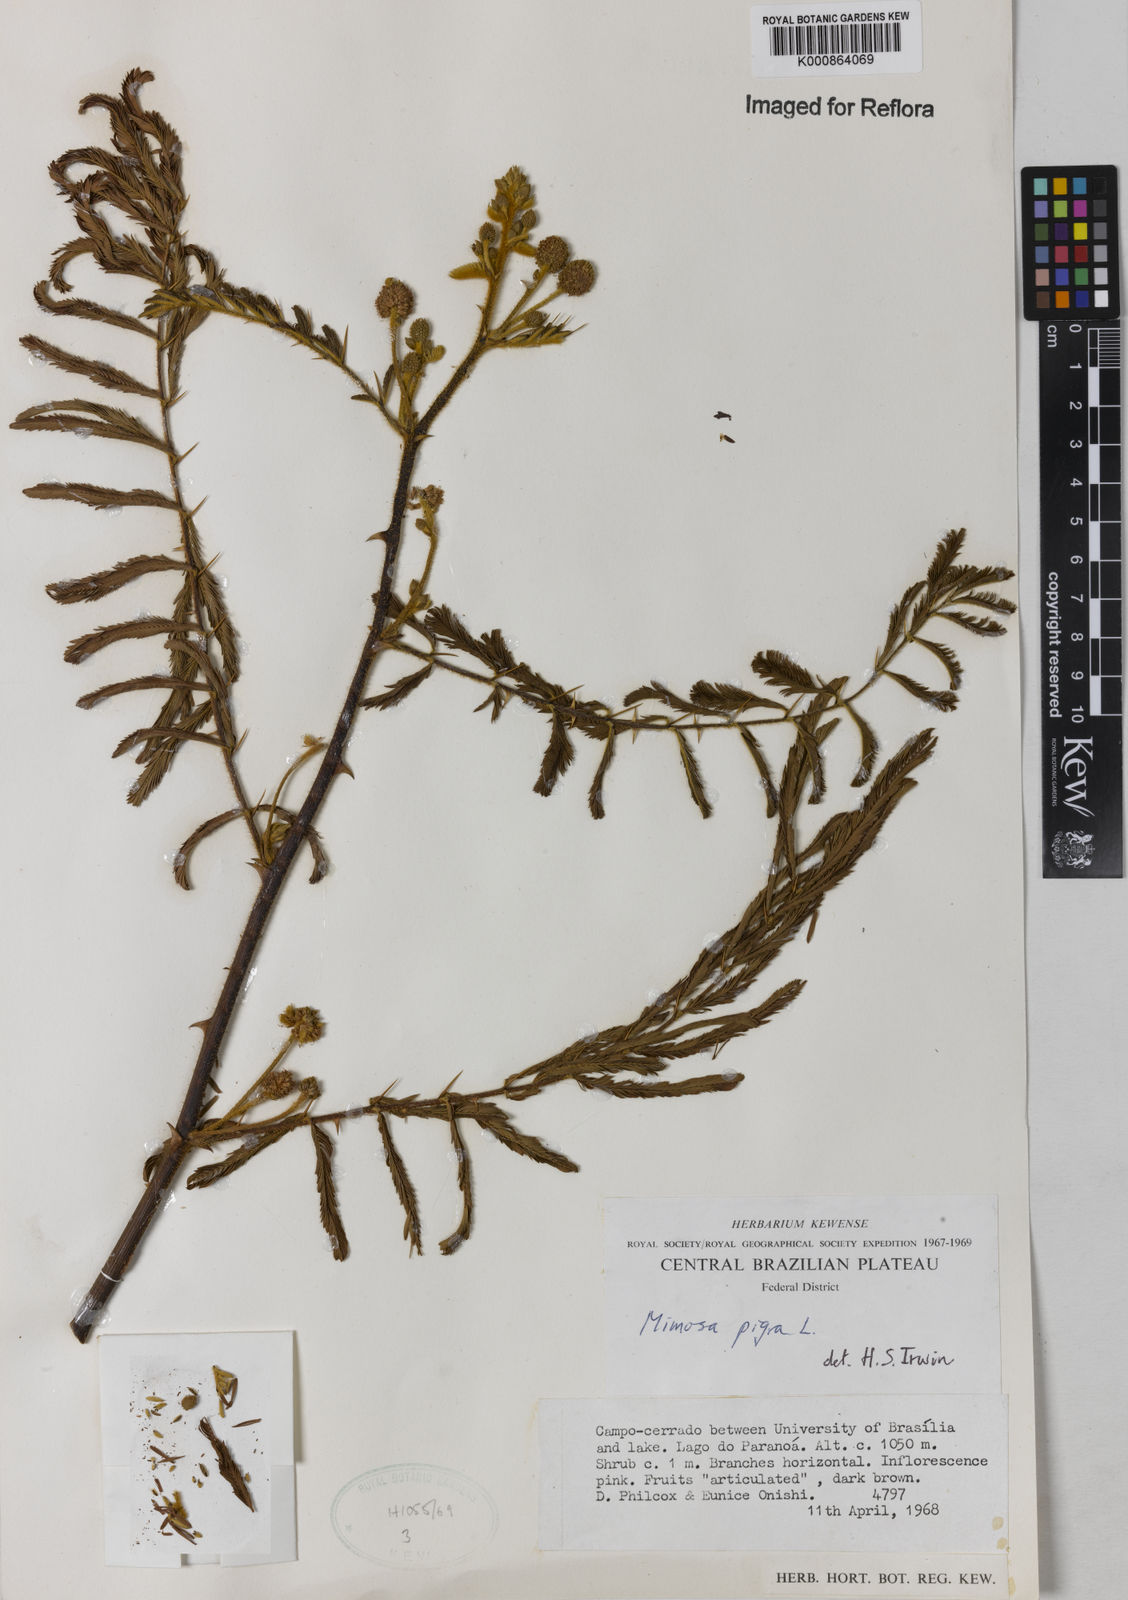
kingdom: Plantae
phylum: Tracheophyta
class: Magnoliopsida
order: Fabales
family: Fabaceae
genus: Mimosa
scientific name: Mimosa pigra
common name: Black mimosa
